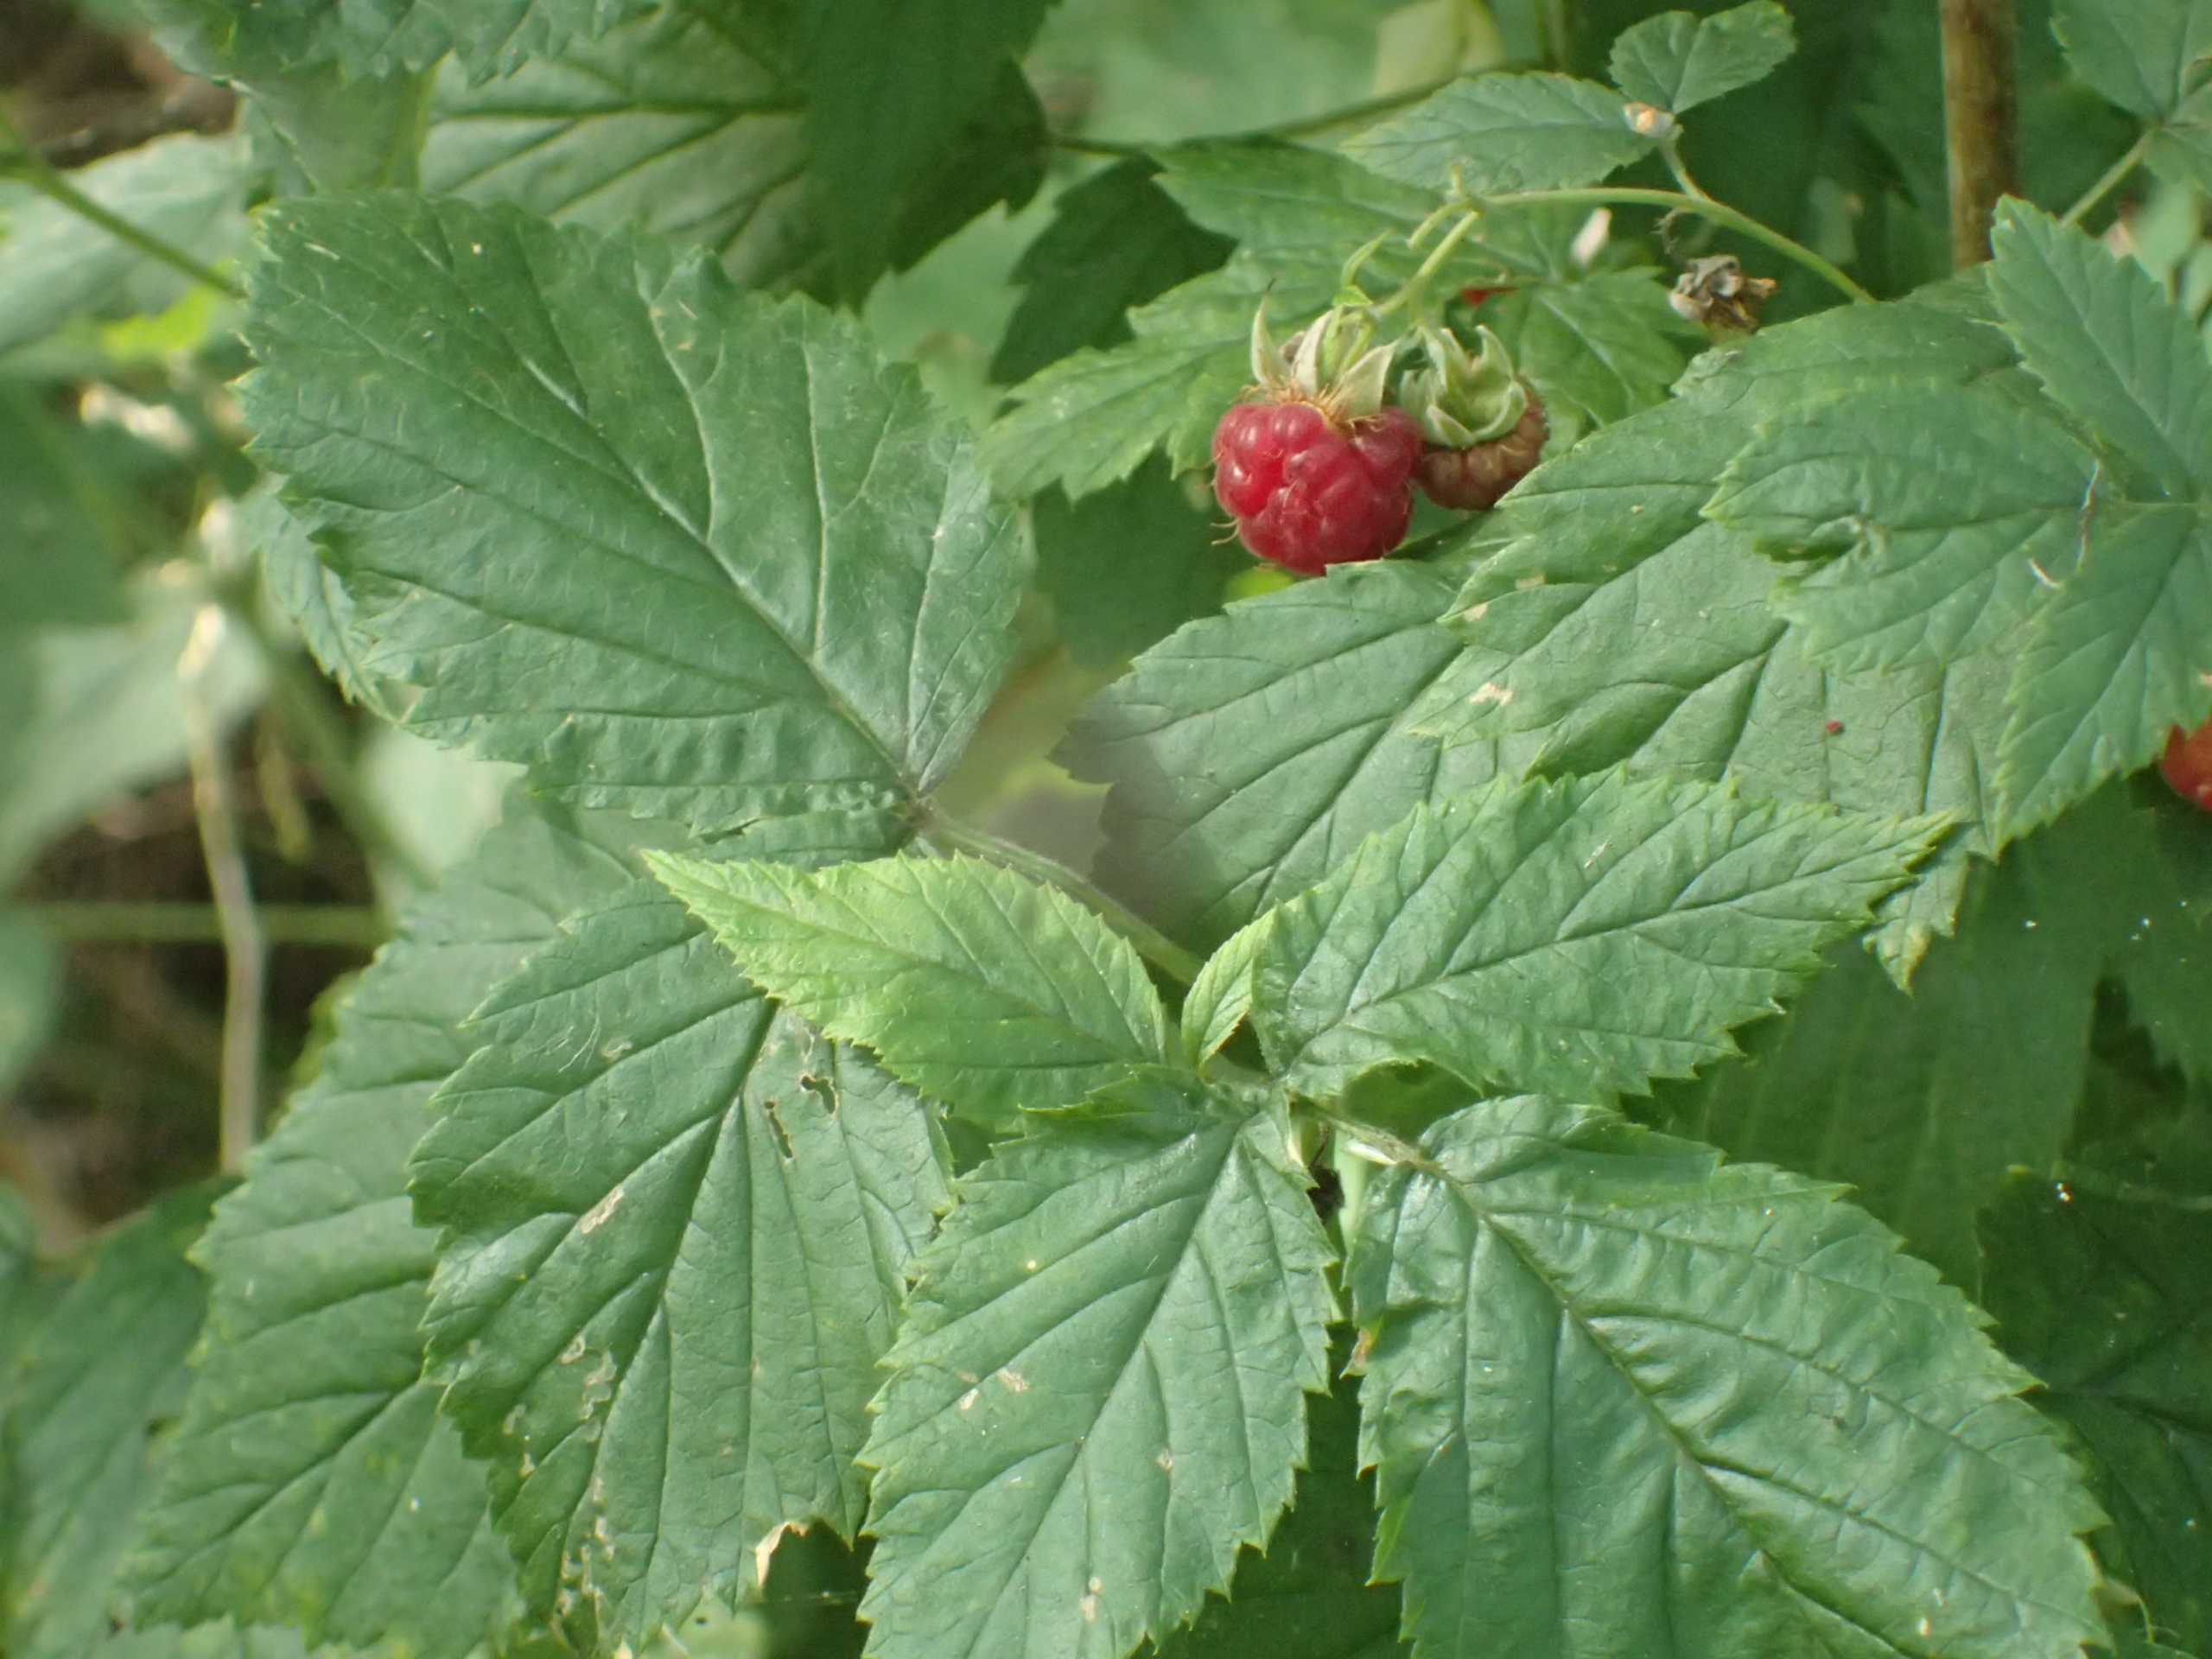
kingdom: Plantae
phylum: Tracheophyta
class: Magnoliopsida
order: Rosales
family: Rosaceae
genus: Rubus
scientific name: Rubus idaeus
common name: Hindbær
